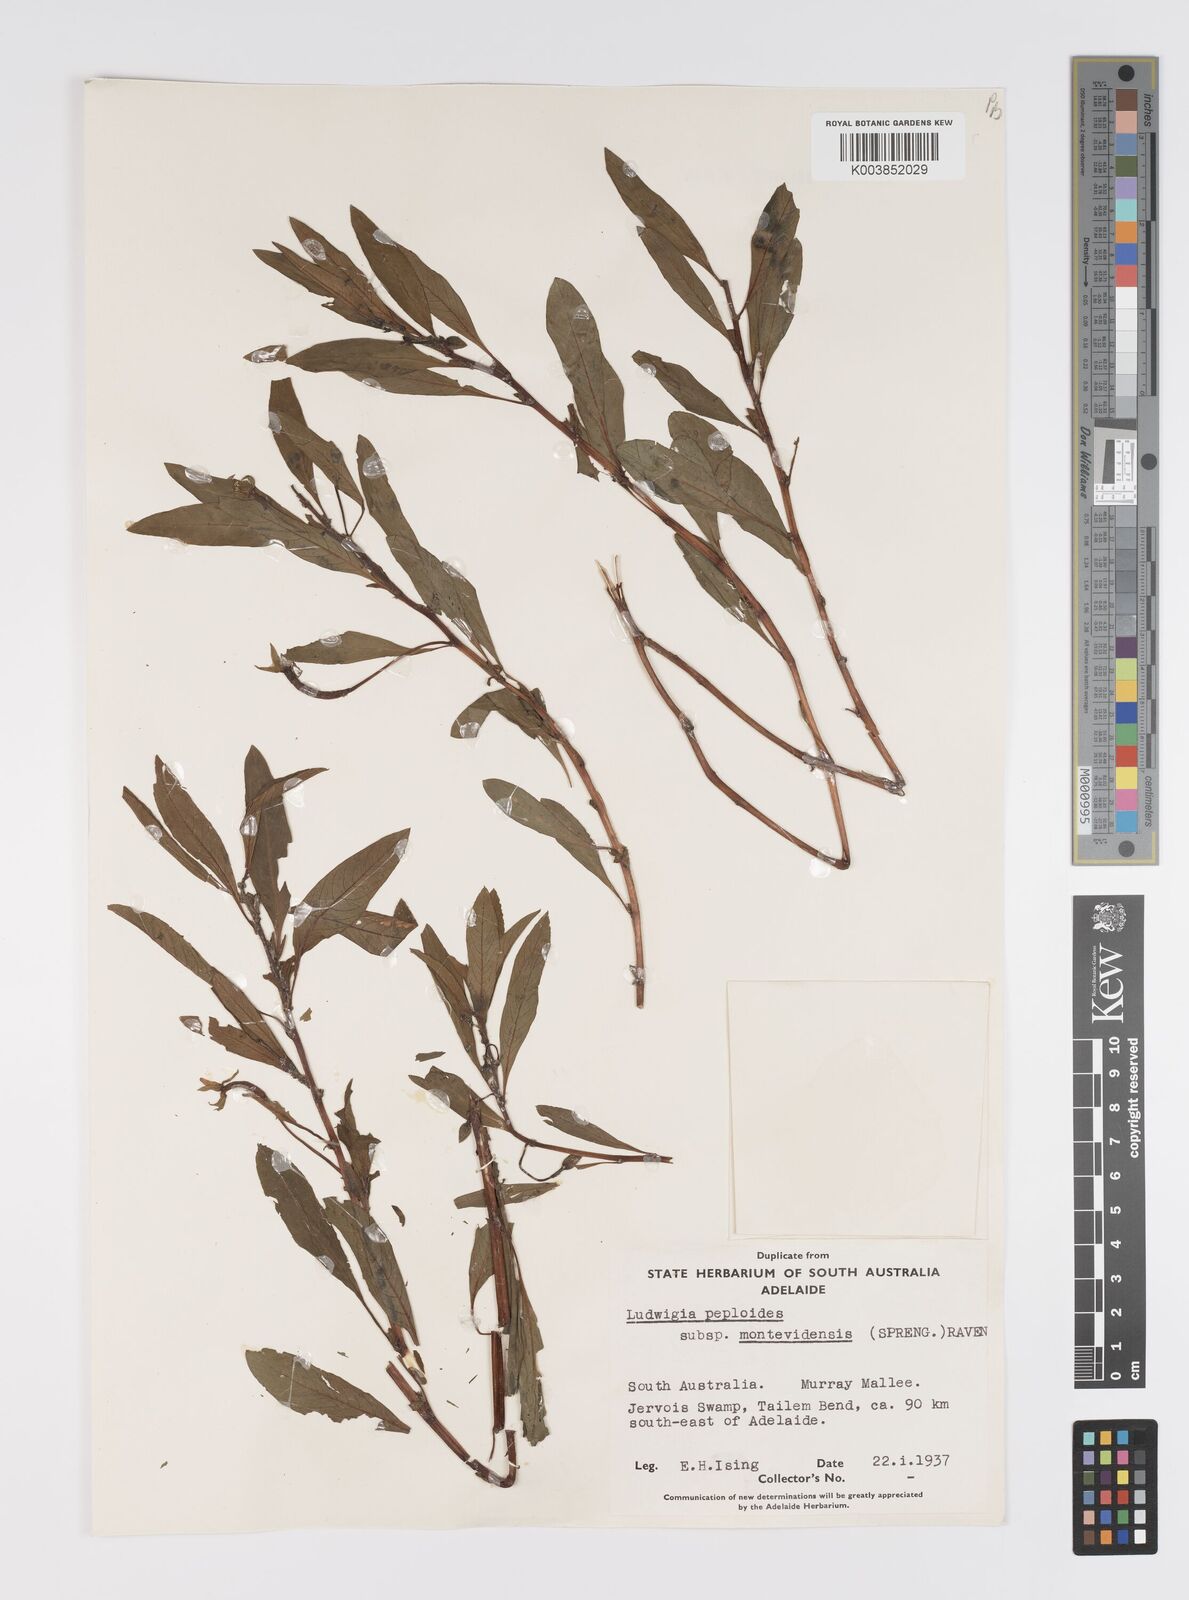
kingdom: Plantae
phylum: Tracheophyta
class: Magnoliopsida
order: Myrtales
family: Onagraceae
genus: Ludwigia
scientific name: Ludwigia peploides
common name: Floating primrose-willow
